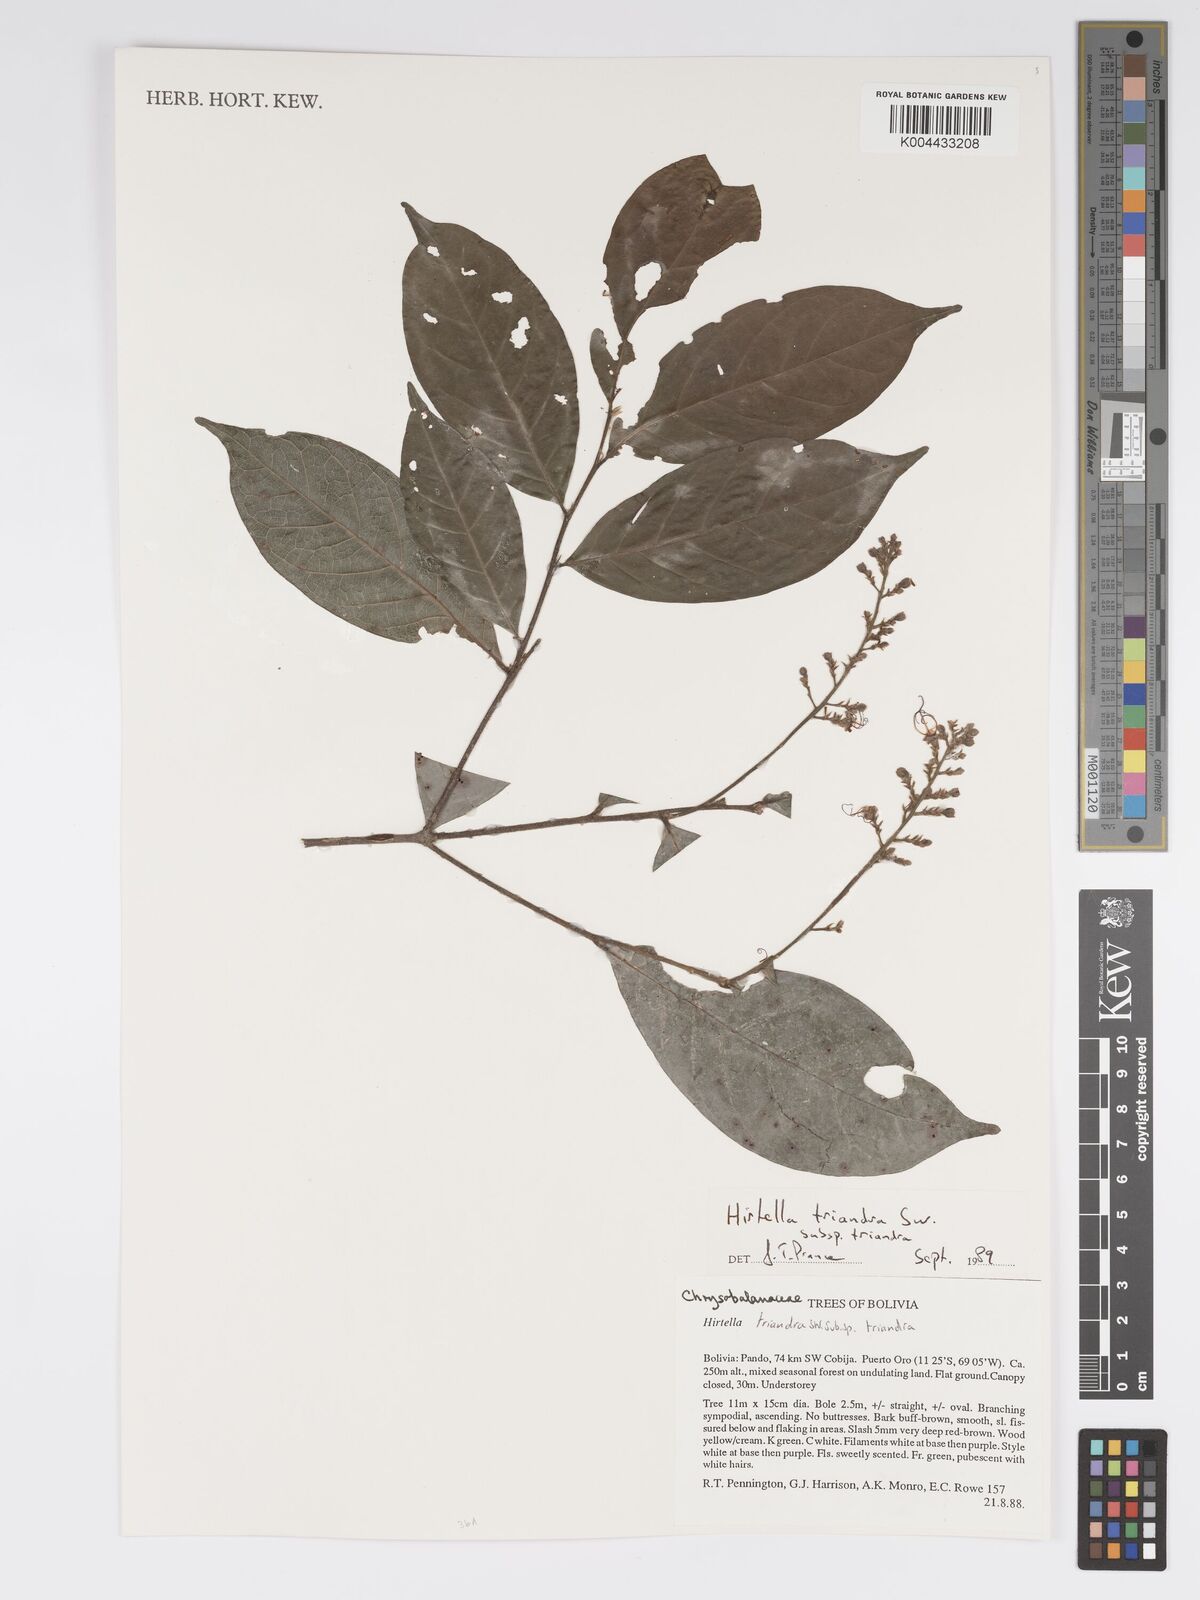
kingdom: Plantae
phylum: Tracheophyta
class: Magnoliopsida
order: Malpighiales
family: Chrysobalanaceae
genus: Hirtella
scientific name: Hirtella triandra
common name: Hairy plum
